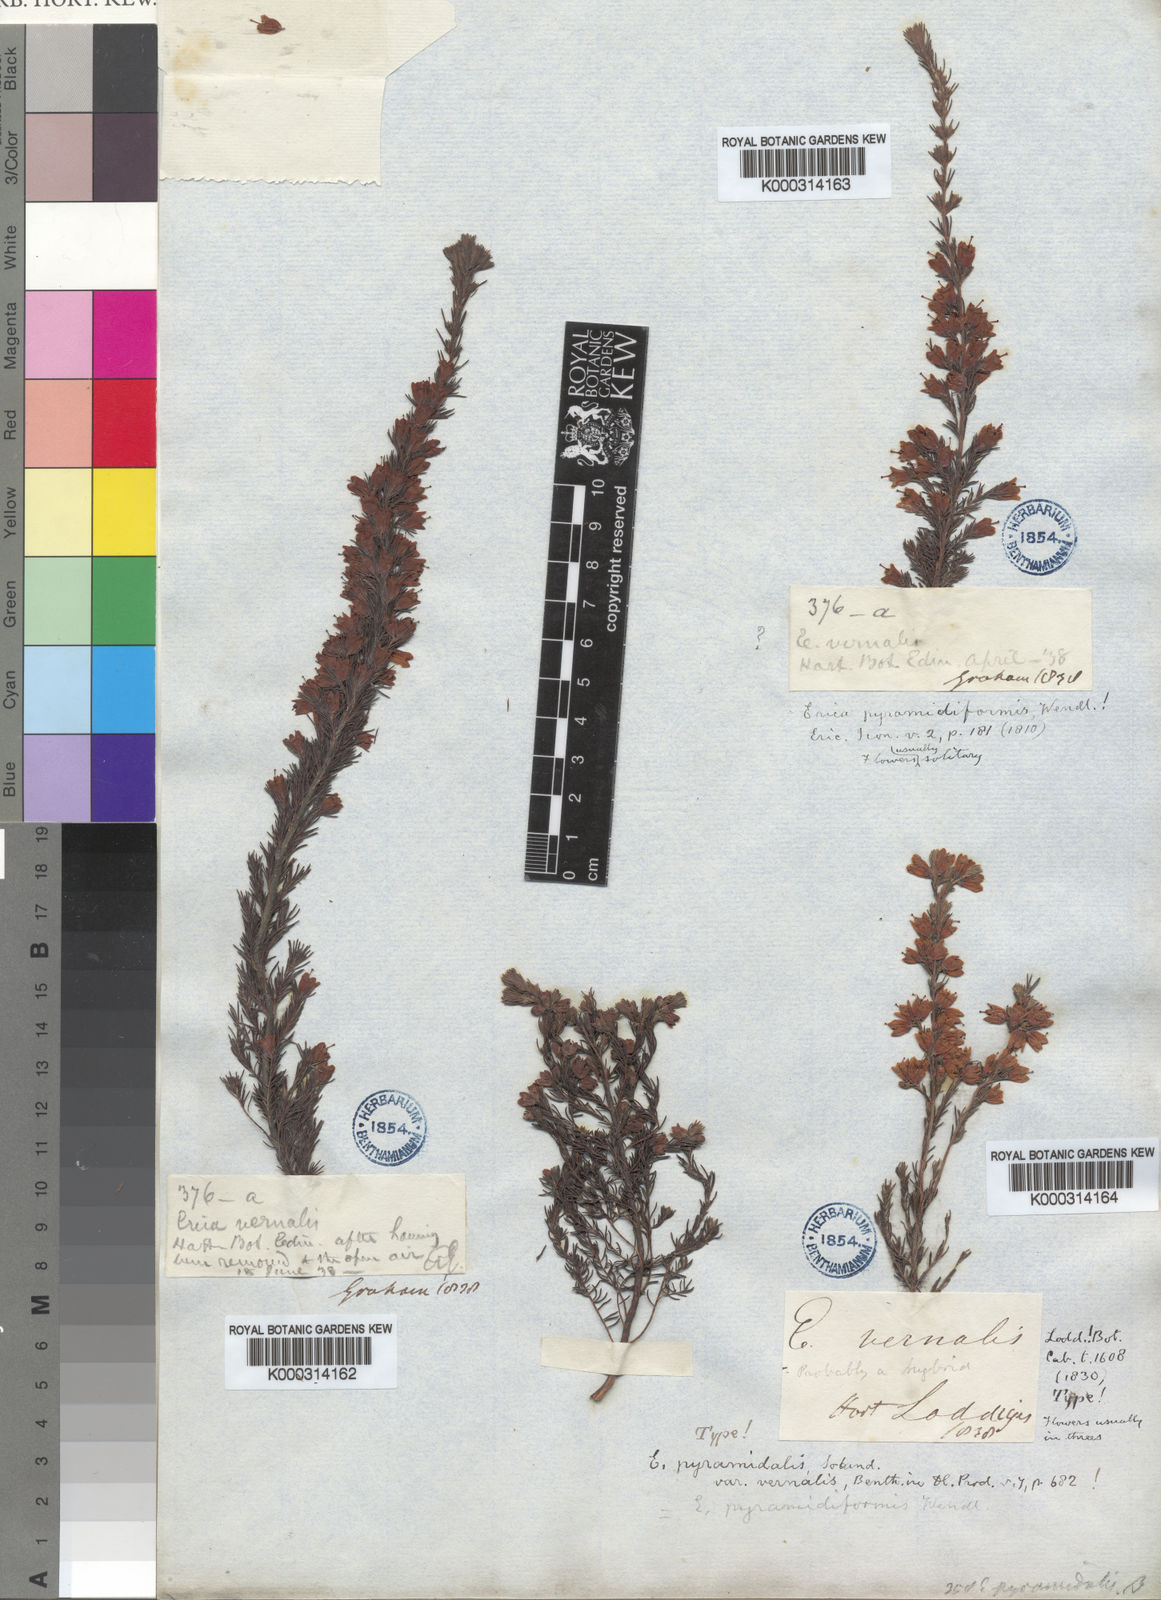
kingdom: Plantae
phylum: Tracheophyta
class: Magnoliopsida
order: Ericales
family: Ericaceae
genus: Erica
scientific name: Erica
